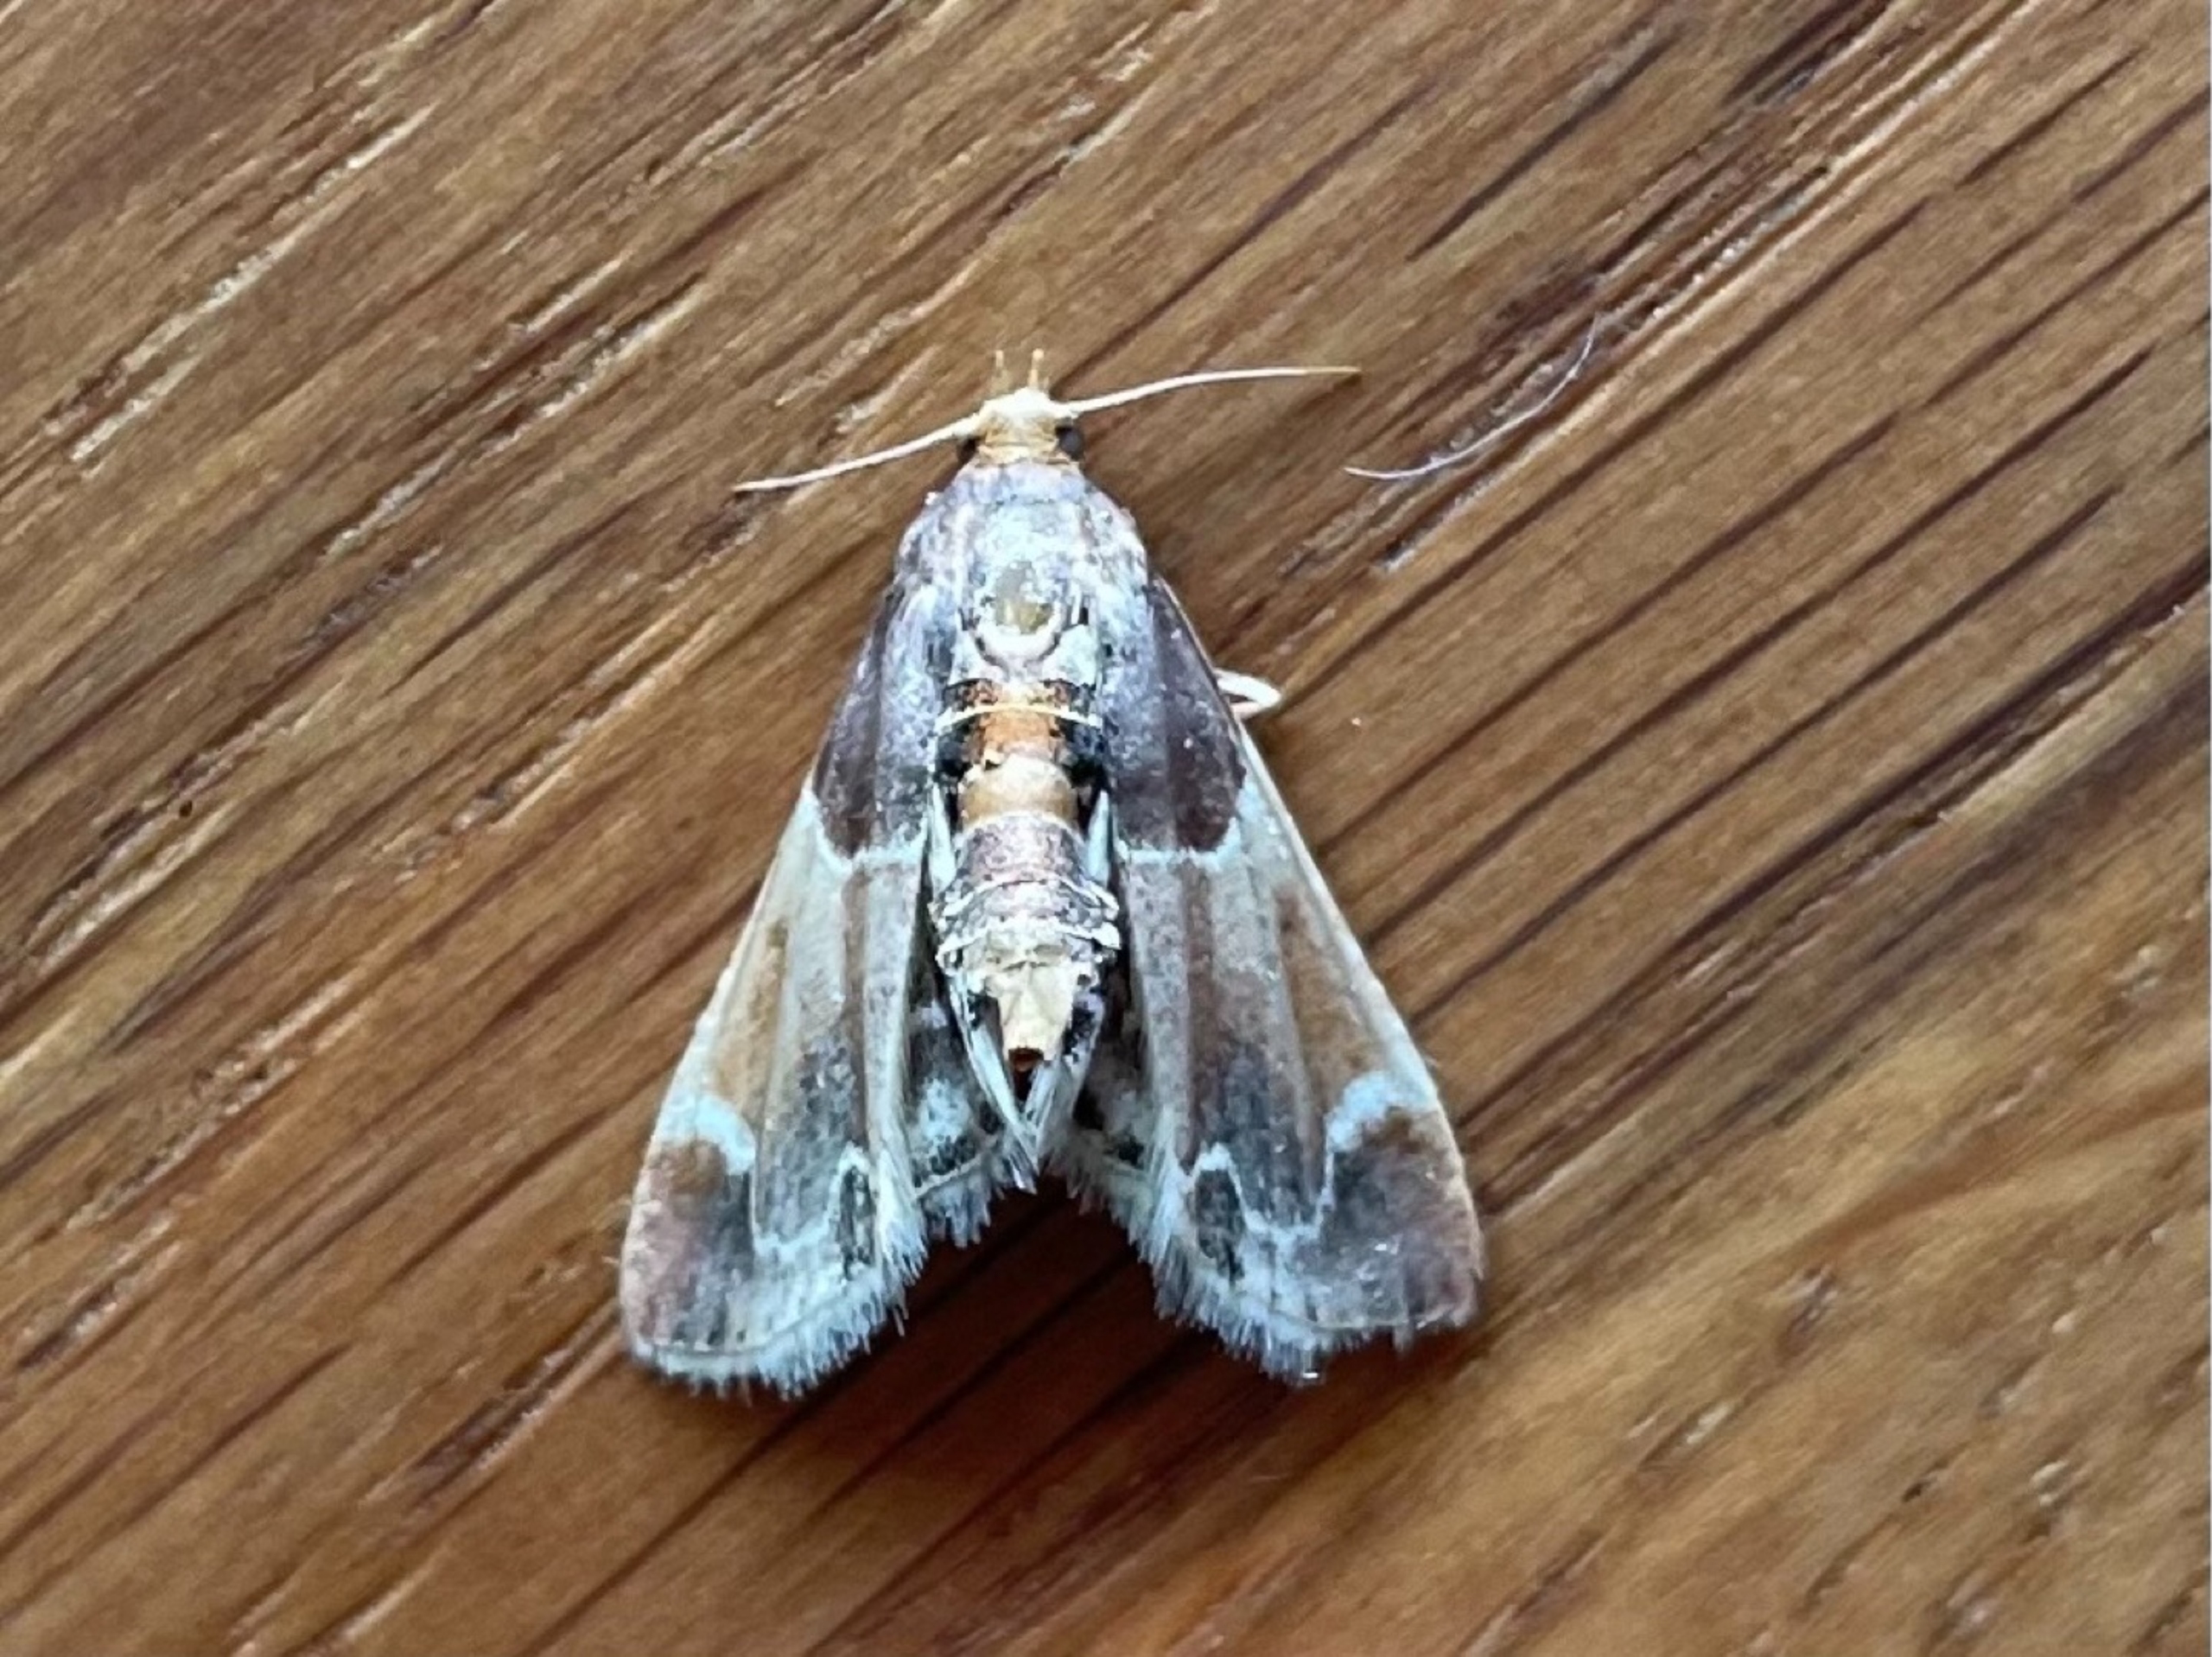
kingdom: Animalia
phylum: Arthropoda
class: Insecta
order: Lepidoptera
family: Pyralidae
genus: Pyralis
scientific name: Pyralis farinalis
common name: Stort melmøl
